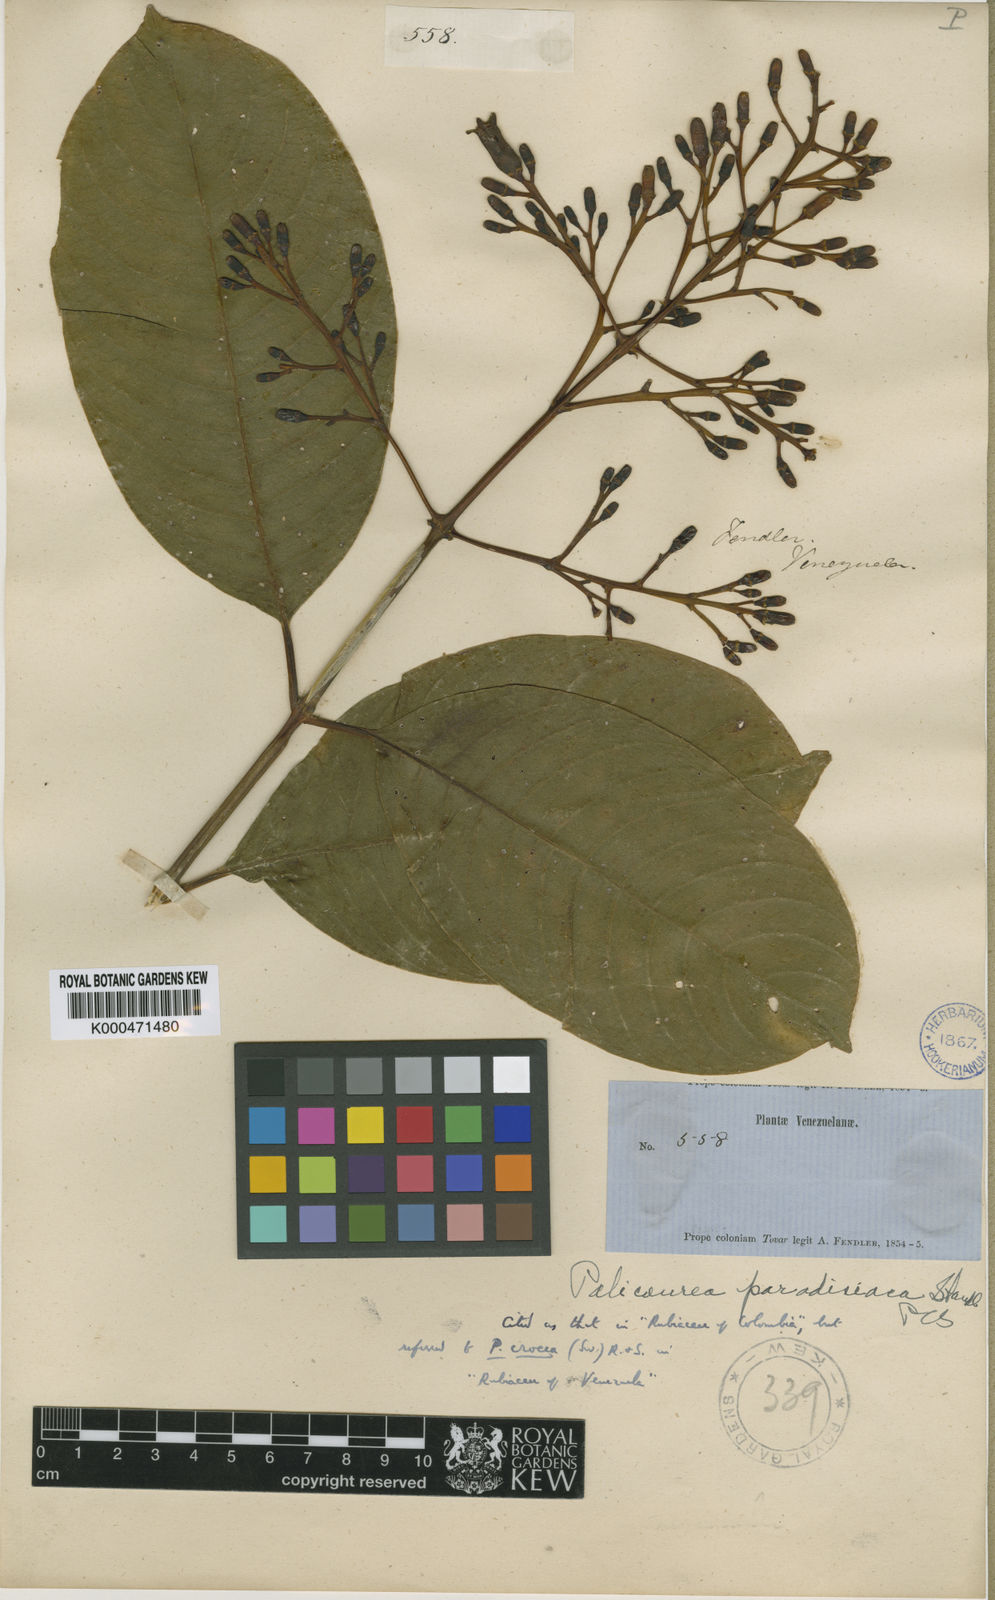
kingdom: Plantae
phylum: Tracheophyta
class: Magnoliopsida
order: Gentianales
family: Rubiaceae
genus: Palicourea
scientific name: Palicourea croceoides
